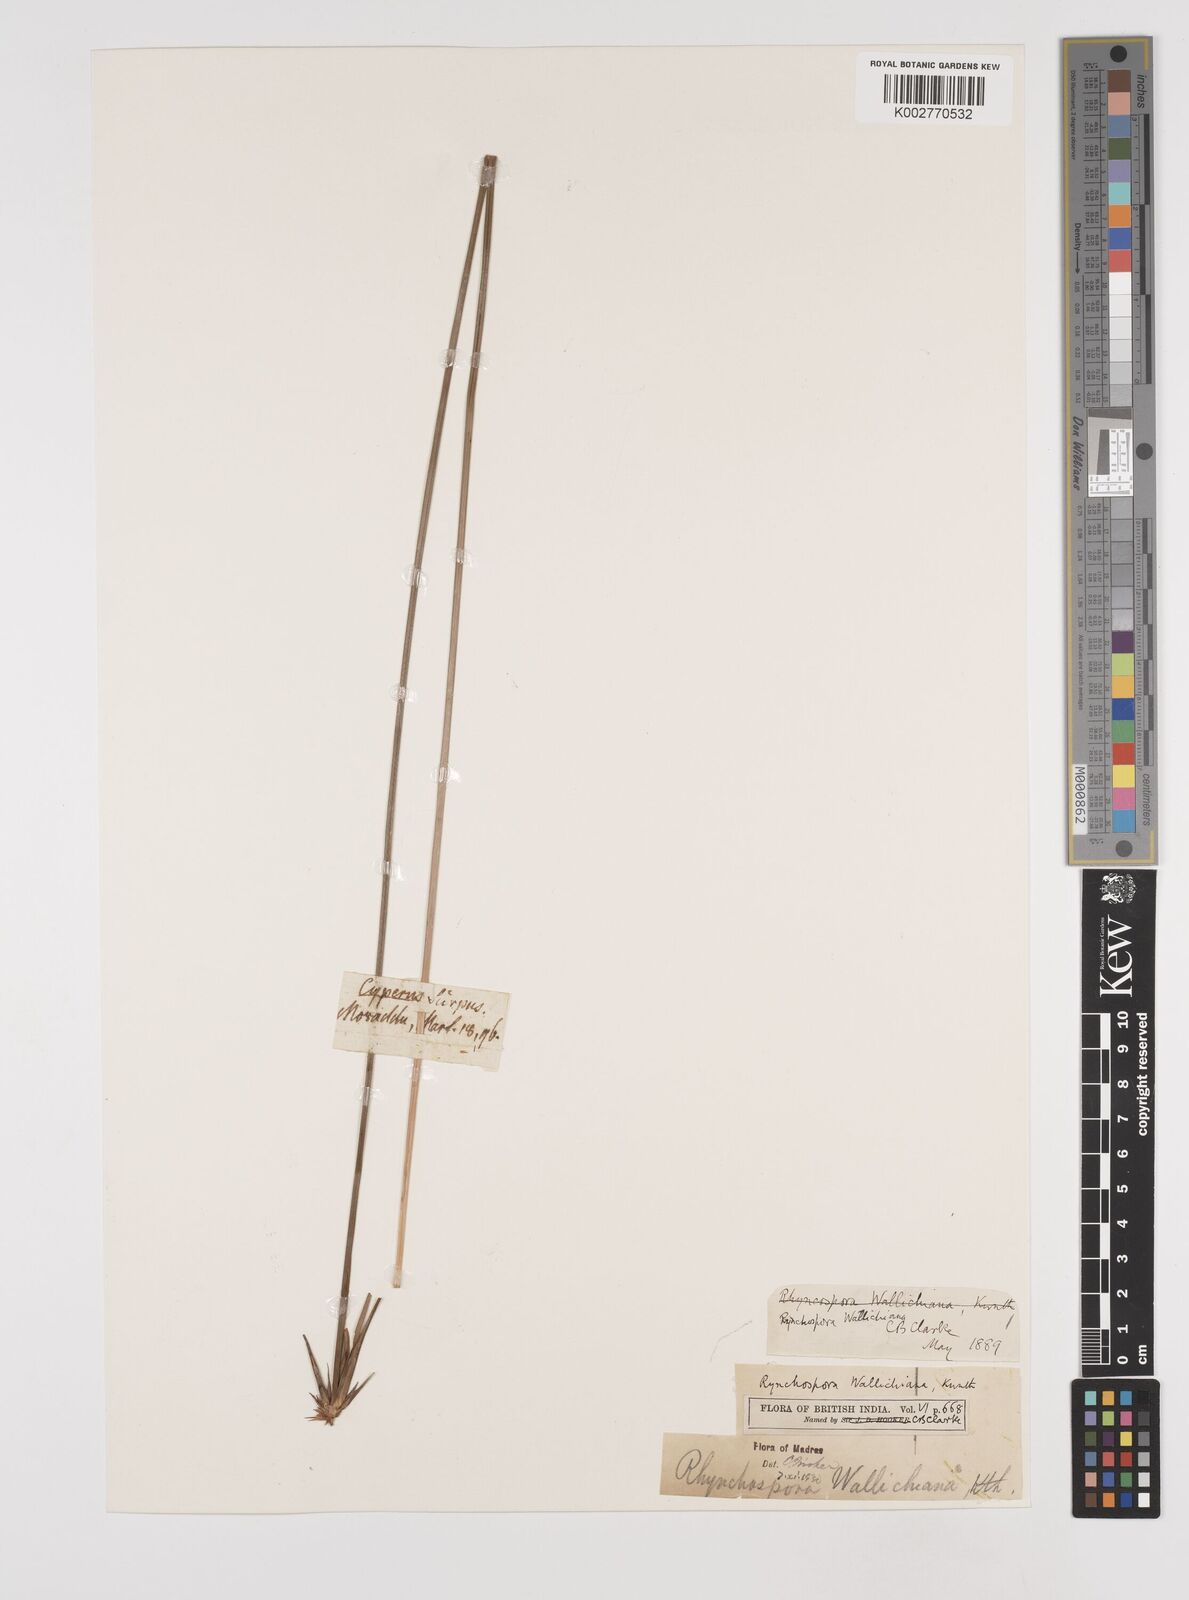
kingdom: Plantae
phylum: Tracheophyta
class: Liliopsida
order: Poales
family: Cyperaceae
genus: Rhynchospora
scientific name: Rhynchospora wightiana
